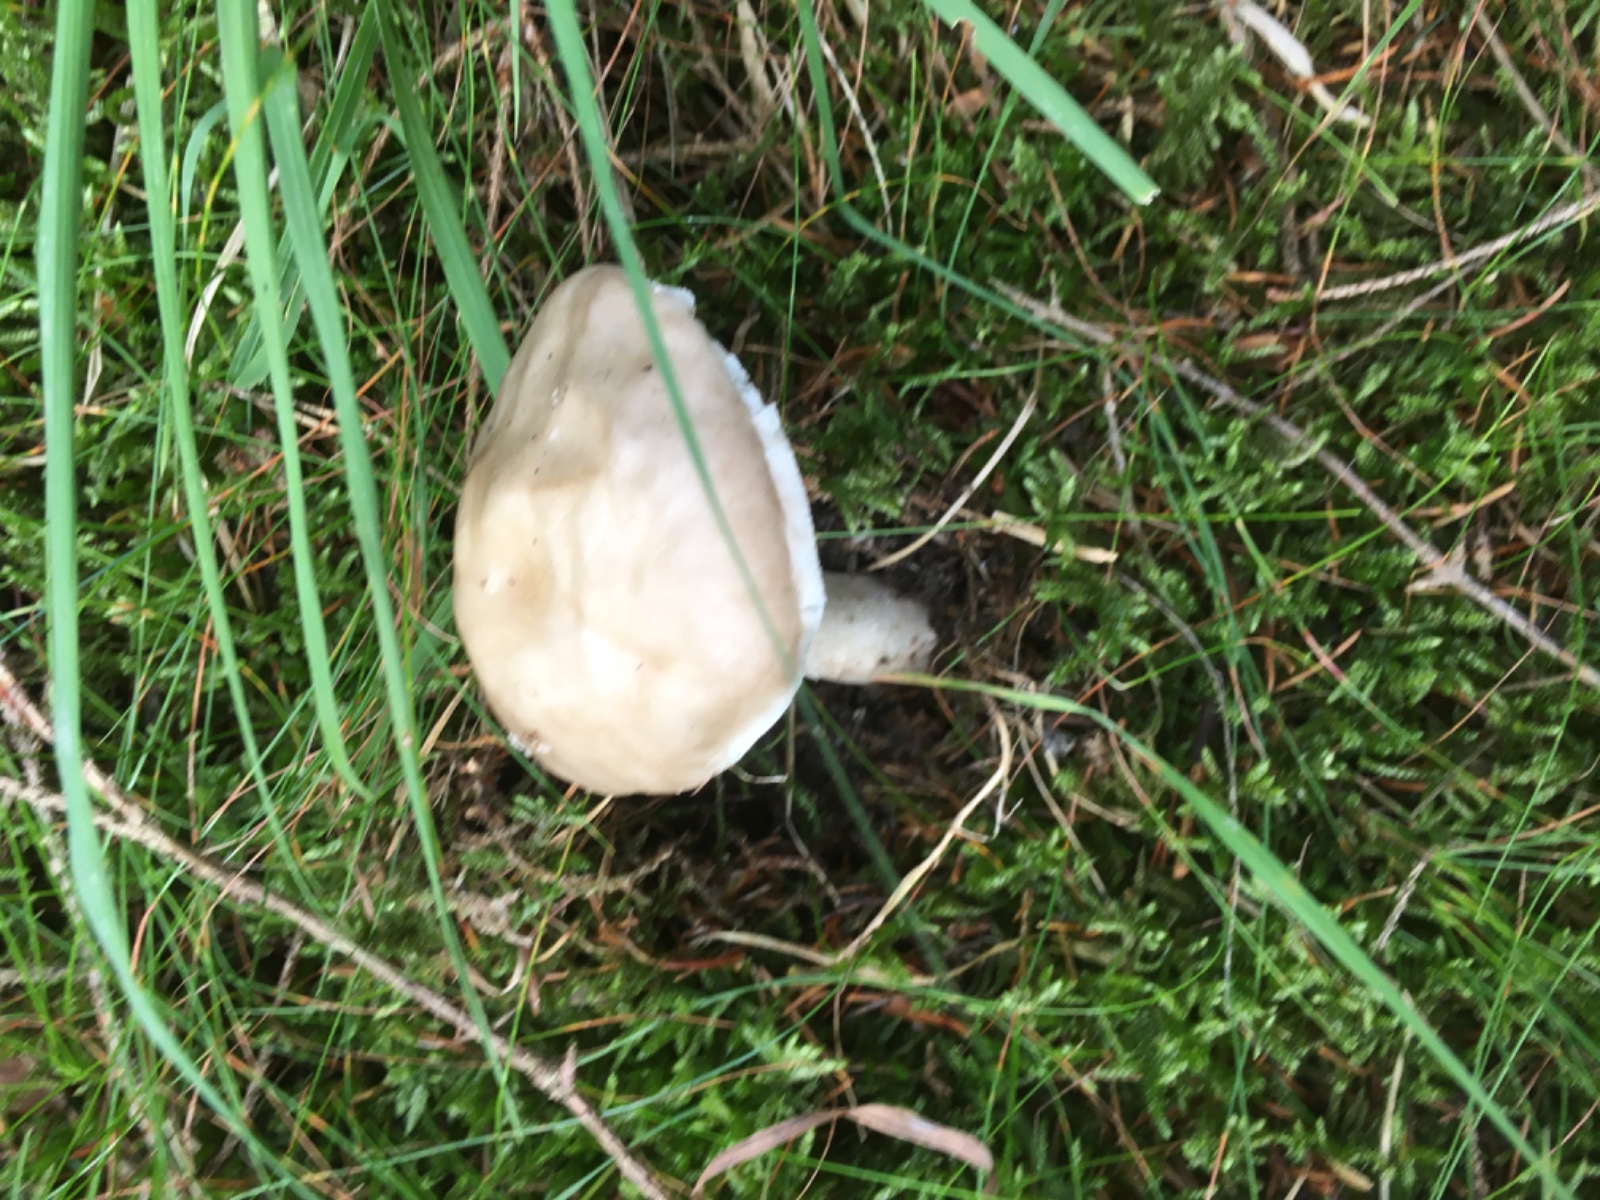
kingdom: Fungi
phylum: Basidiomycota
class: Agaricomycetes
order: Agaricales
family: Amanitaceae
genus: Amanita
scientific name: Amanita
